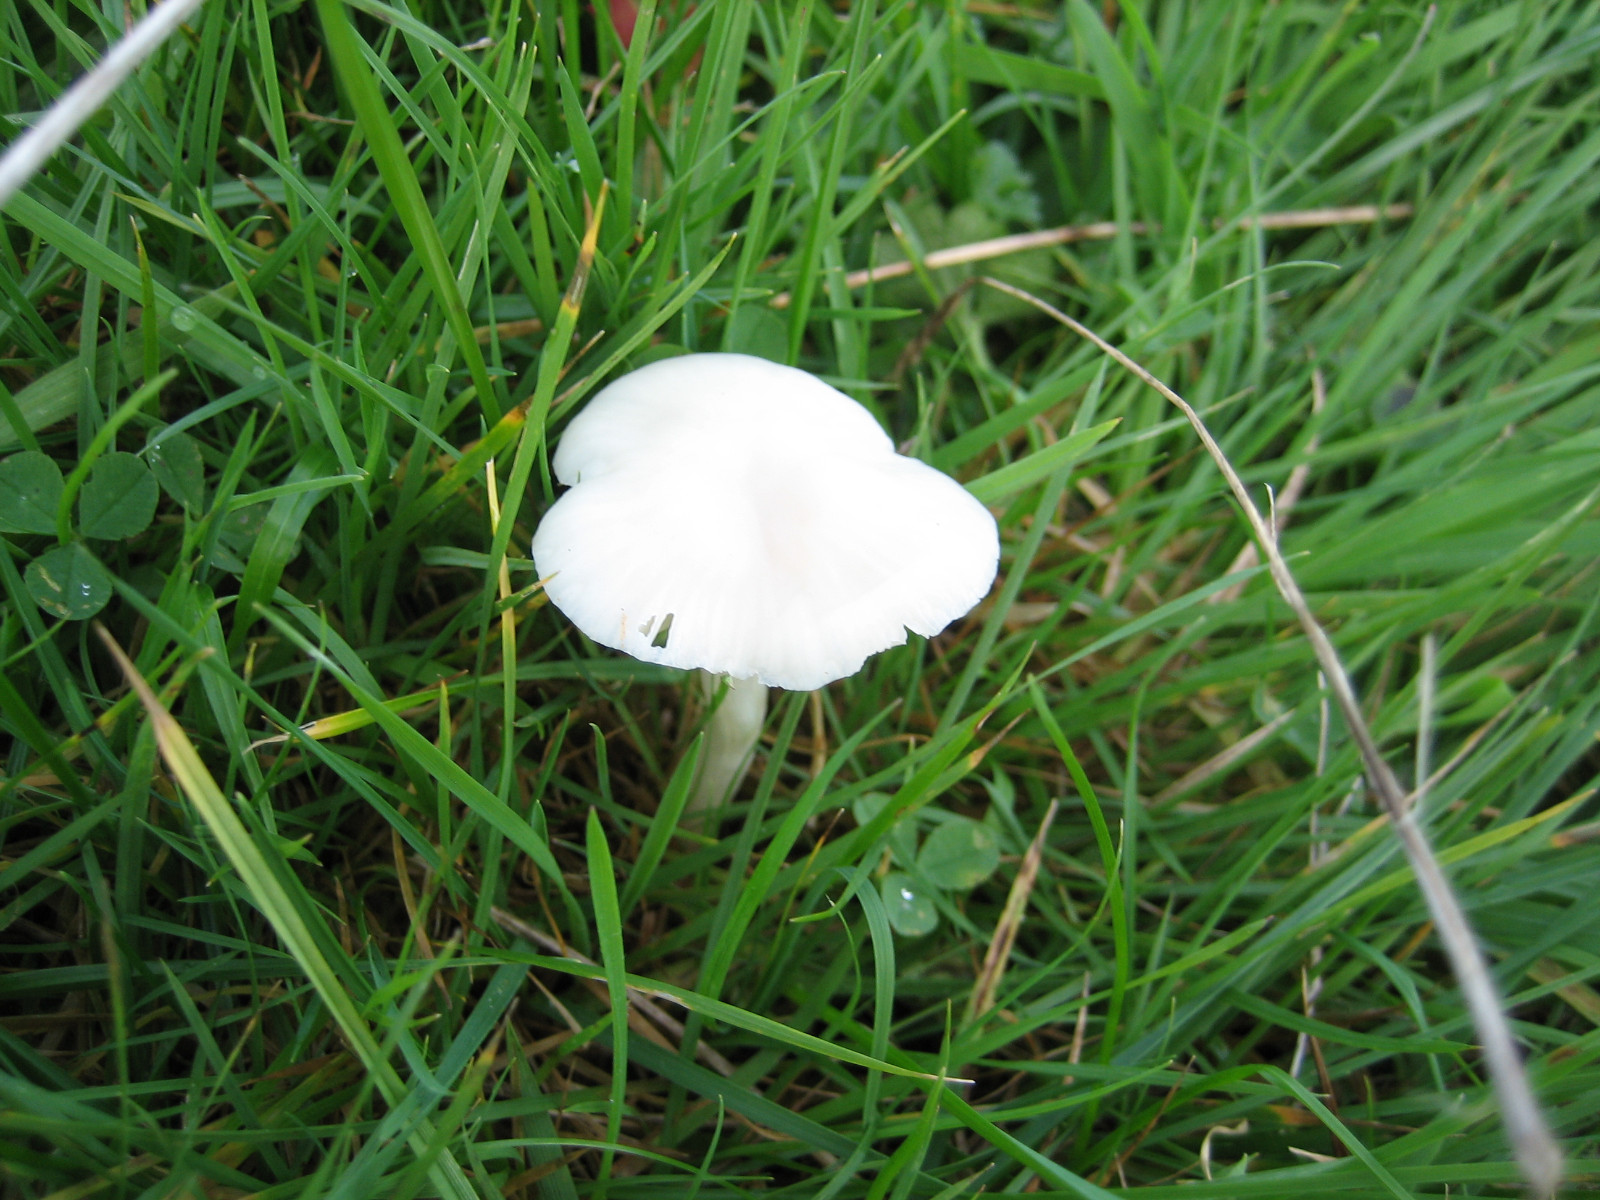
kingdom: Fungi
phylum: Basidiomycota
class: Agaricomycetes
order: Agaricales
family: Hygrophoraceae
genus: Cuphophyllus
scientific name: Cuphophyllus virgineus
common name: snehvid vokshat
